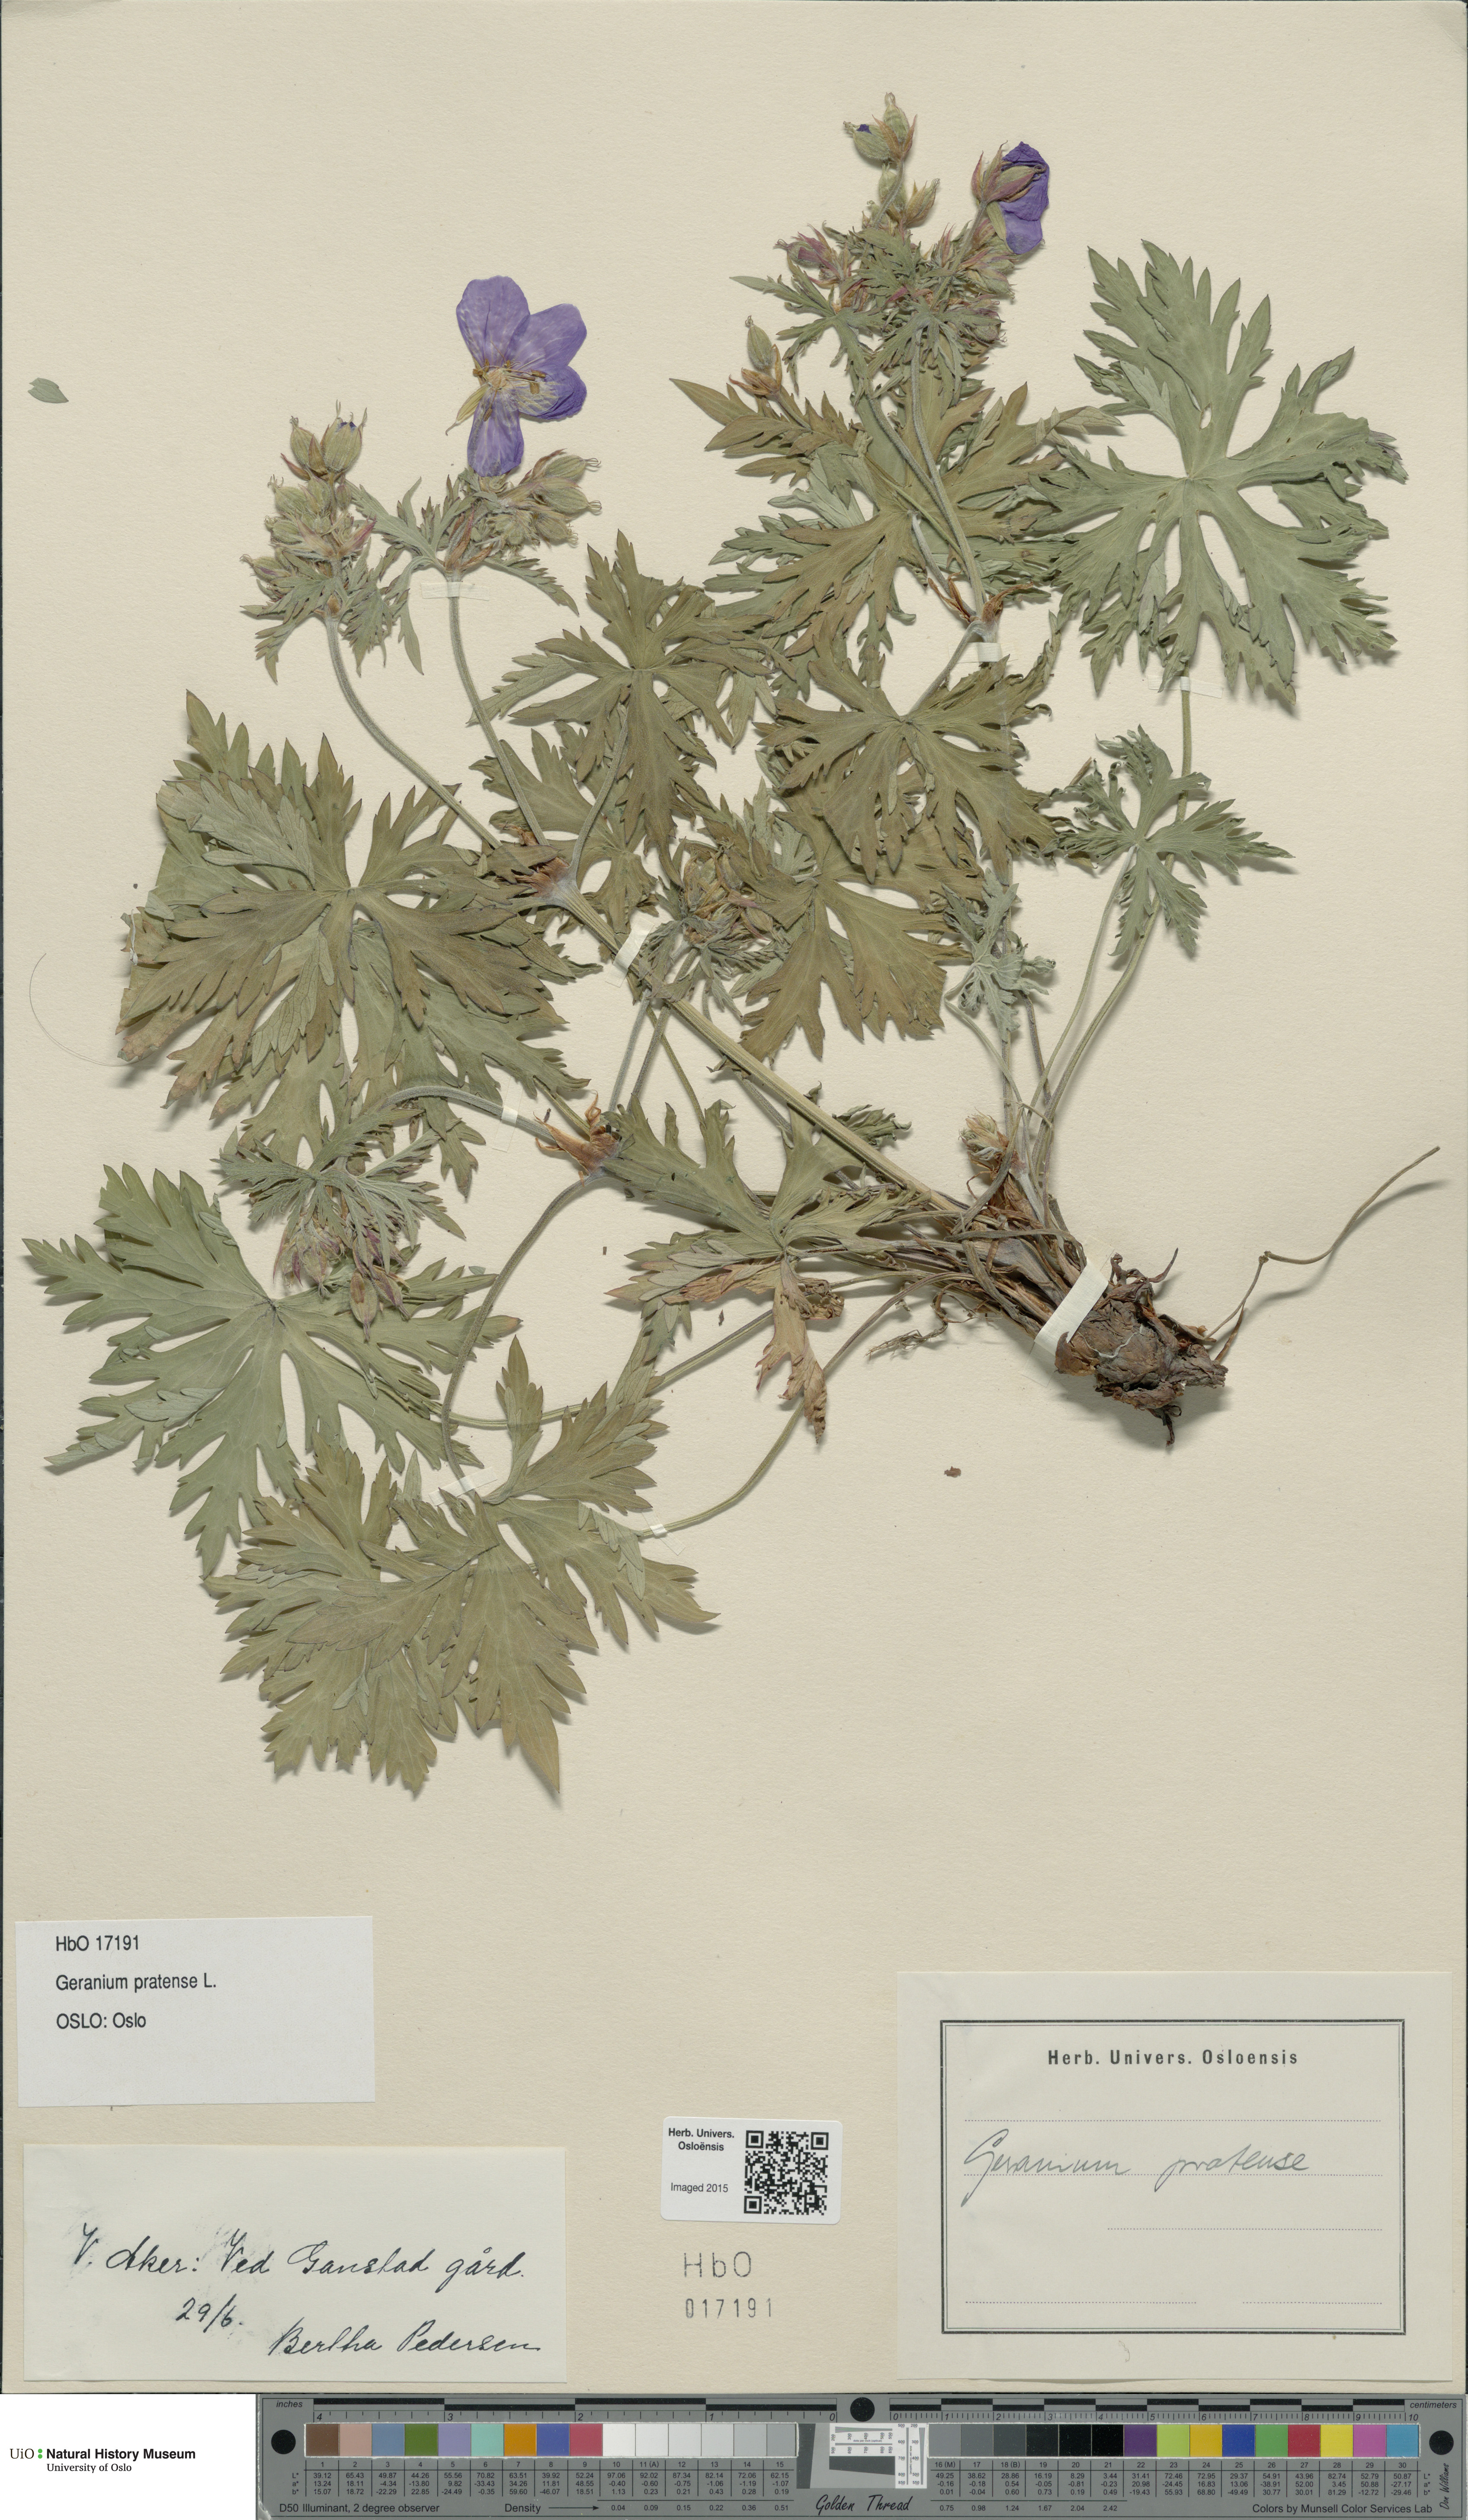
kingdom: Plantae
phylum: Tracheophyta
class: Magnoliopsida
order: Geraniales
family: Geraniaceae
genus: Geranium
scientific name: Geranium pratense
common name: Meadow crane's-bill
